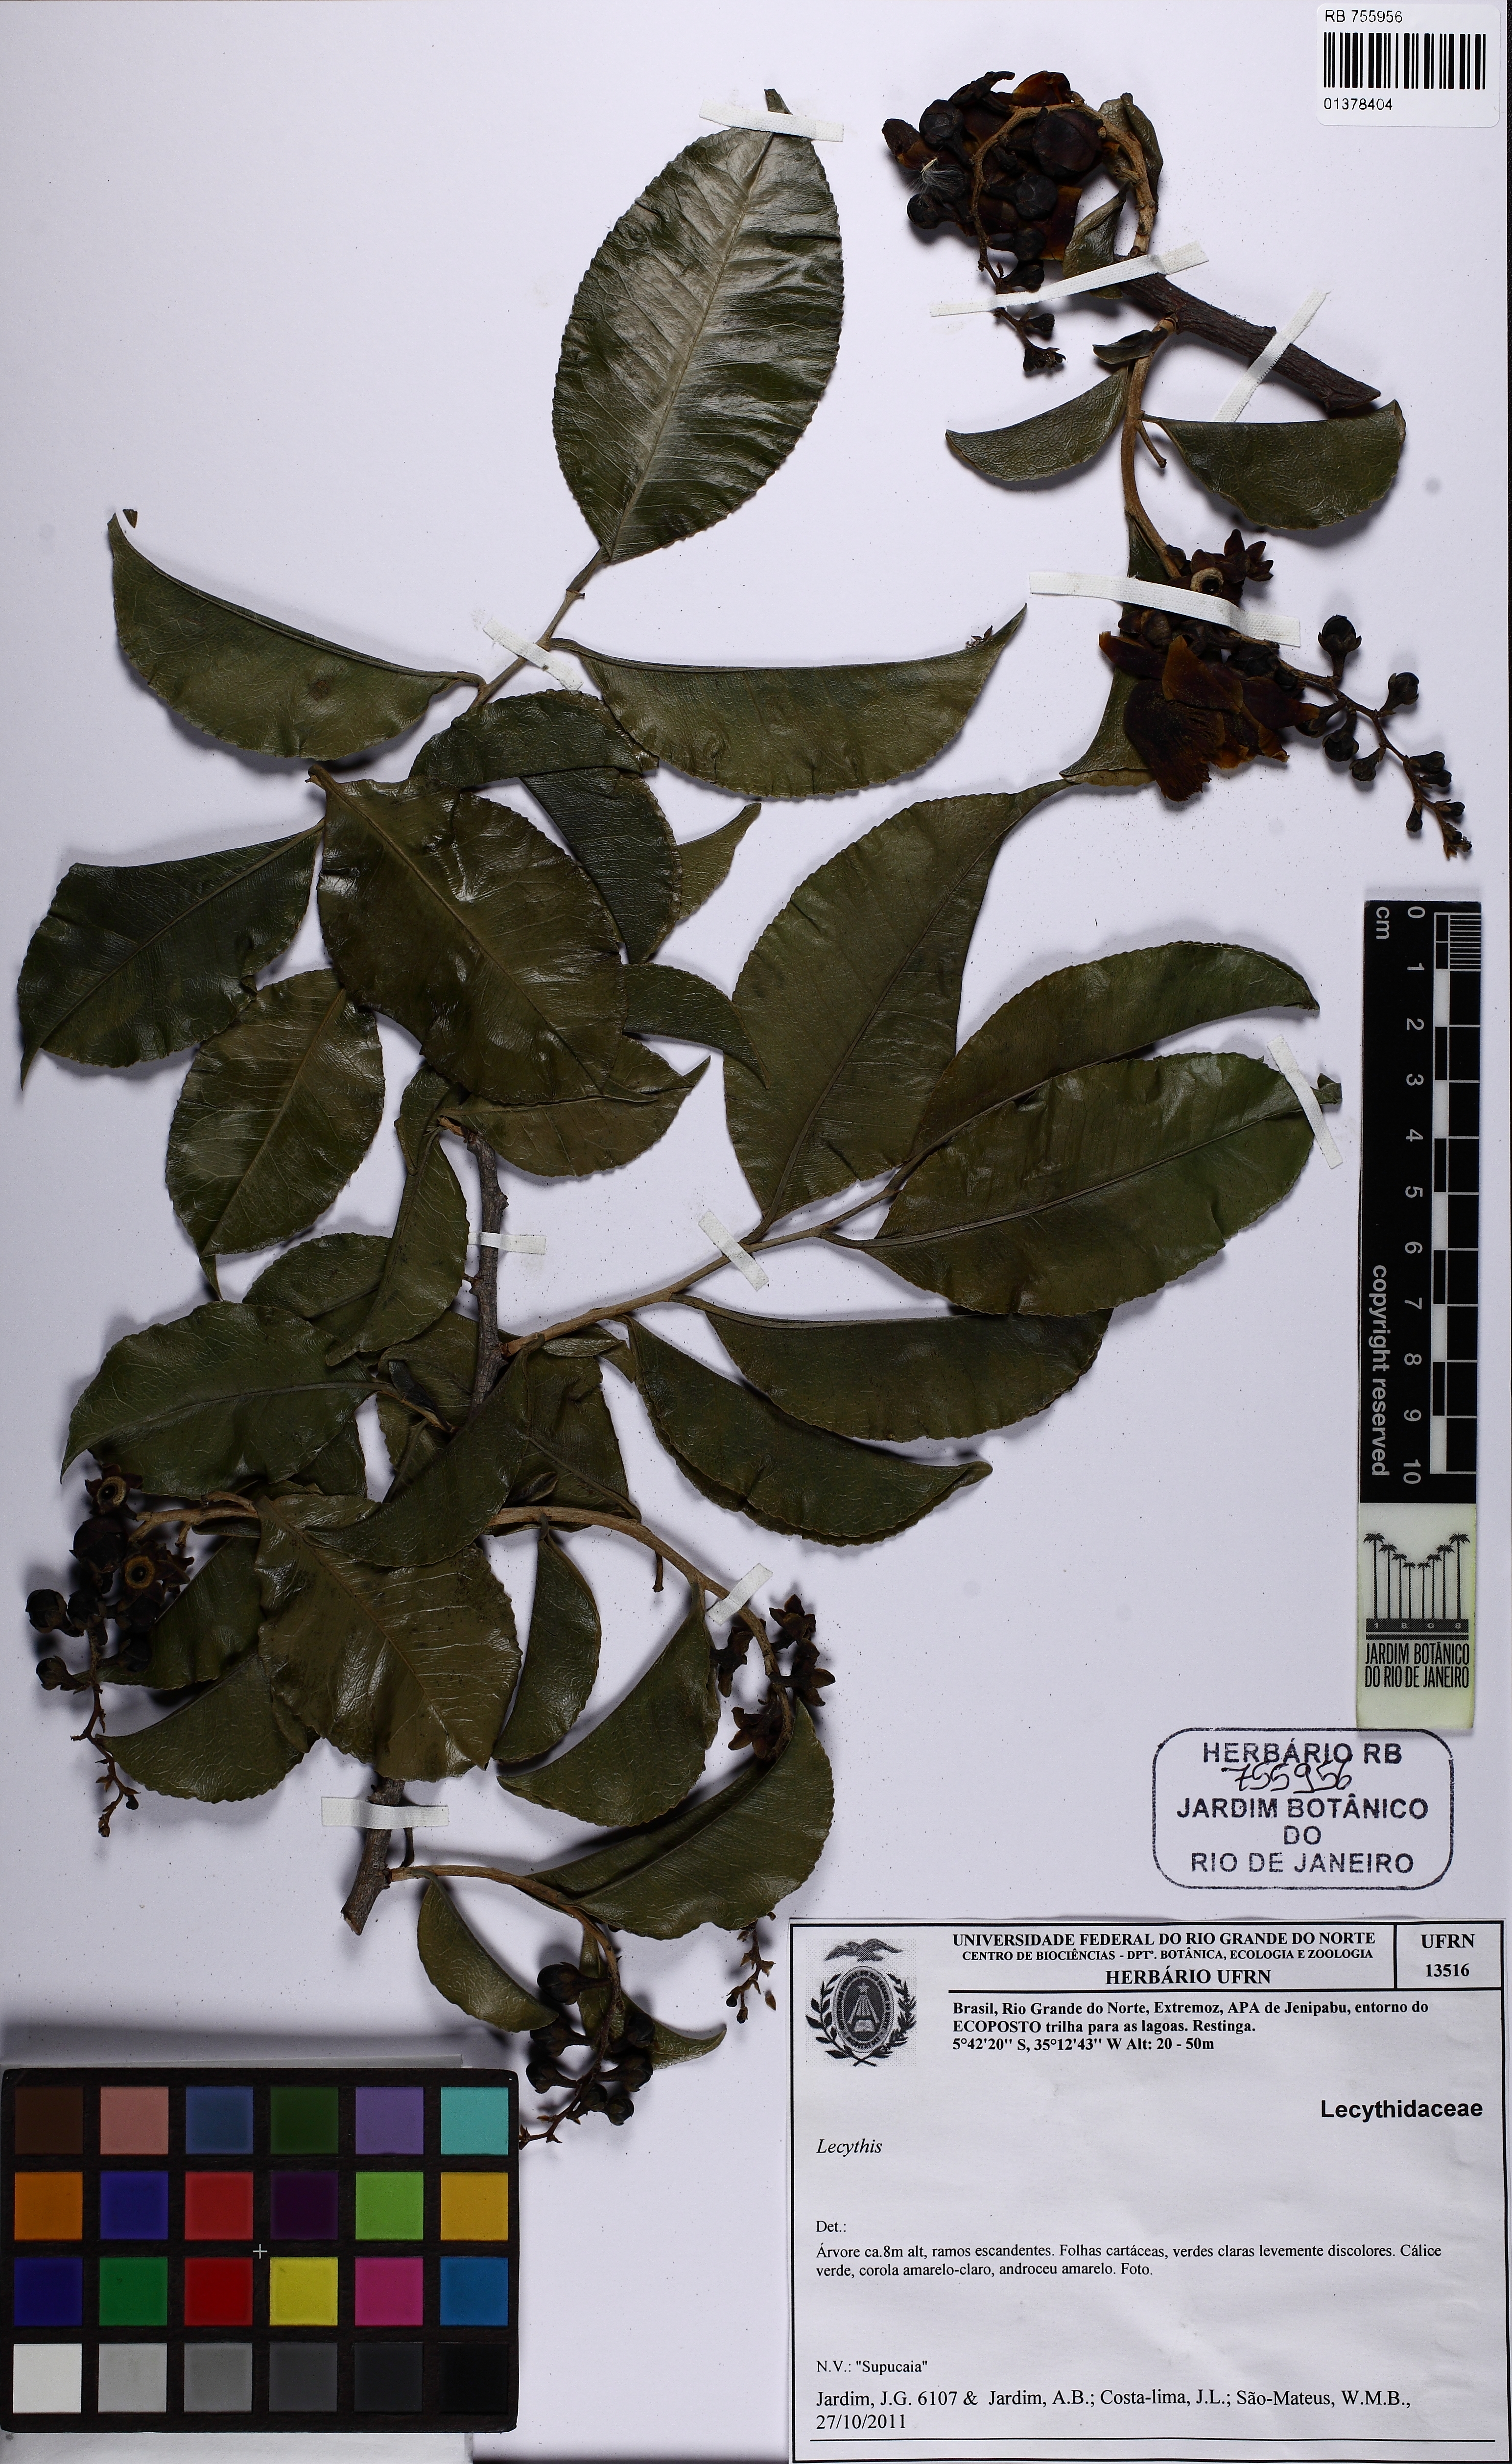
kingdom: Plantae
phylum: Tracheophyta
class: Magnoliopsida
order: Ericales
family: Lecythidaceae
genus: Lecythis
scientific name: Lecythis marcgraaviana
